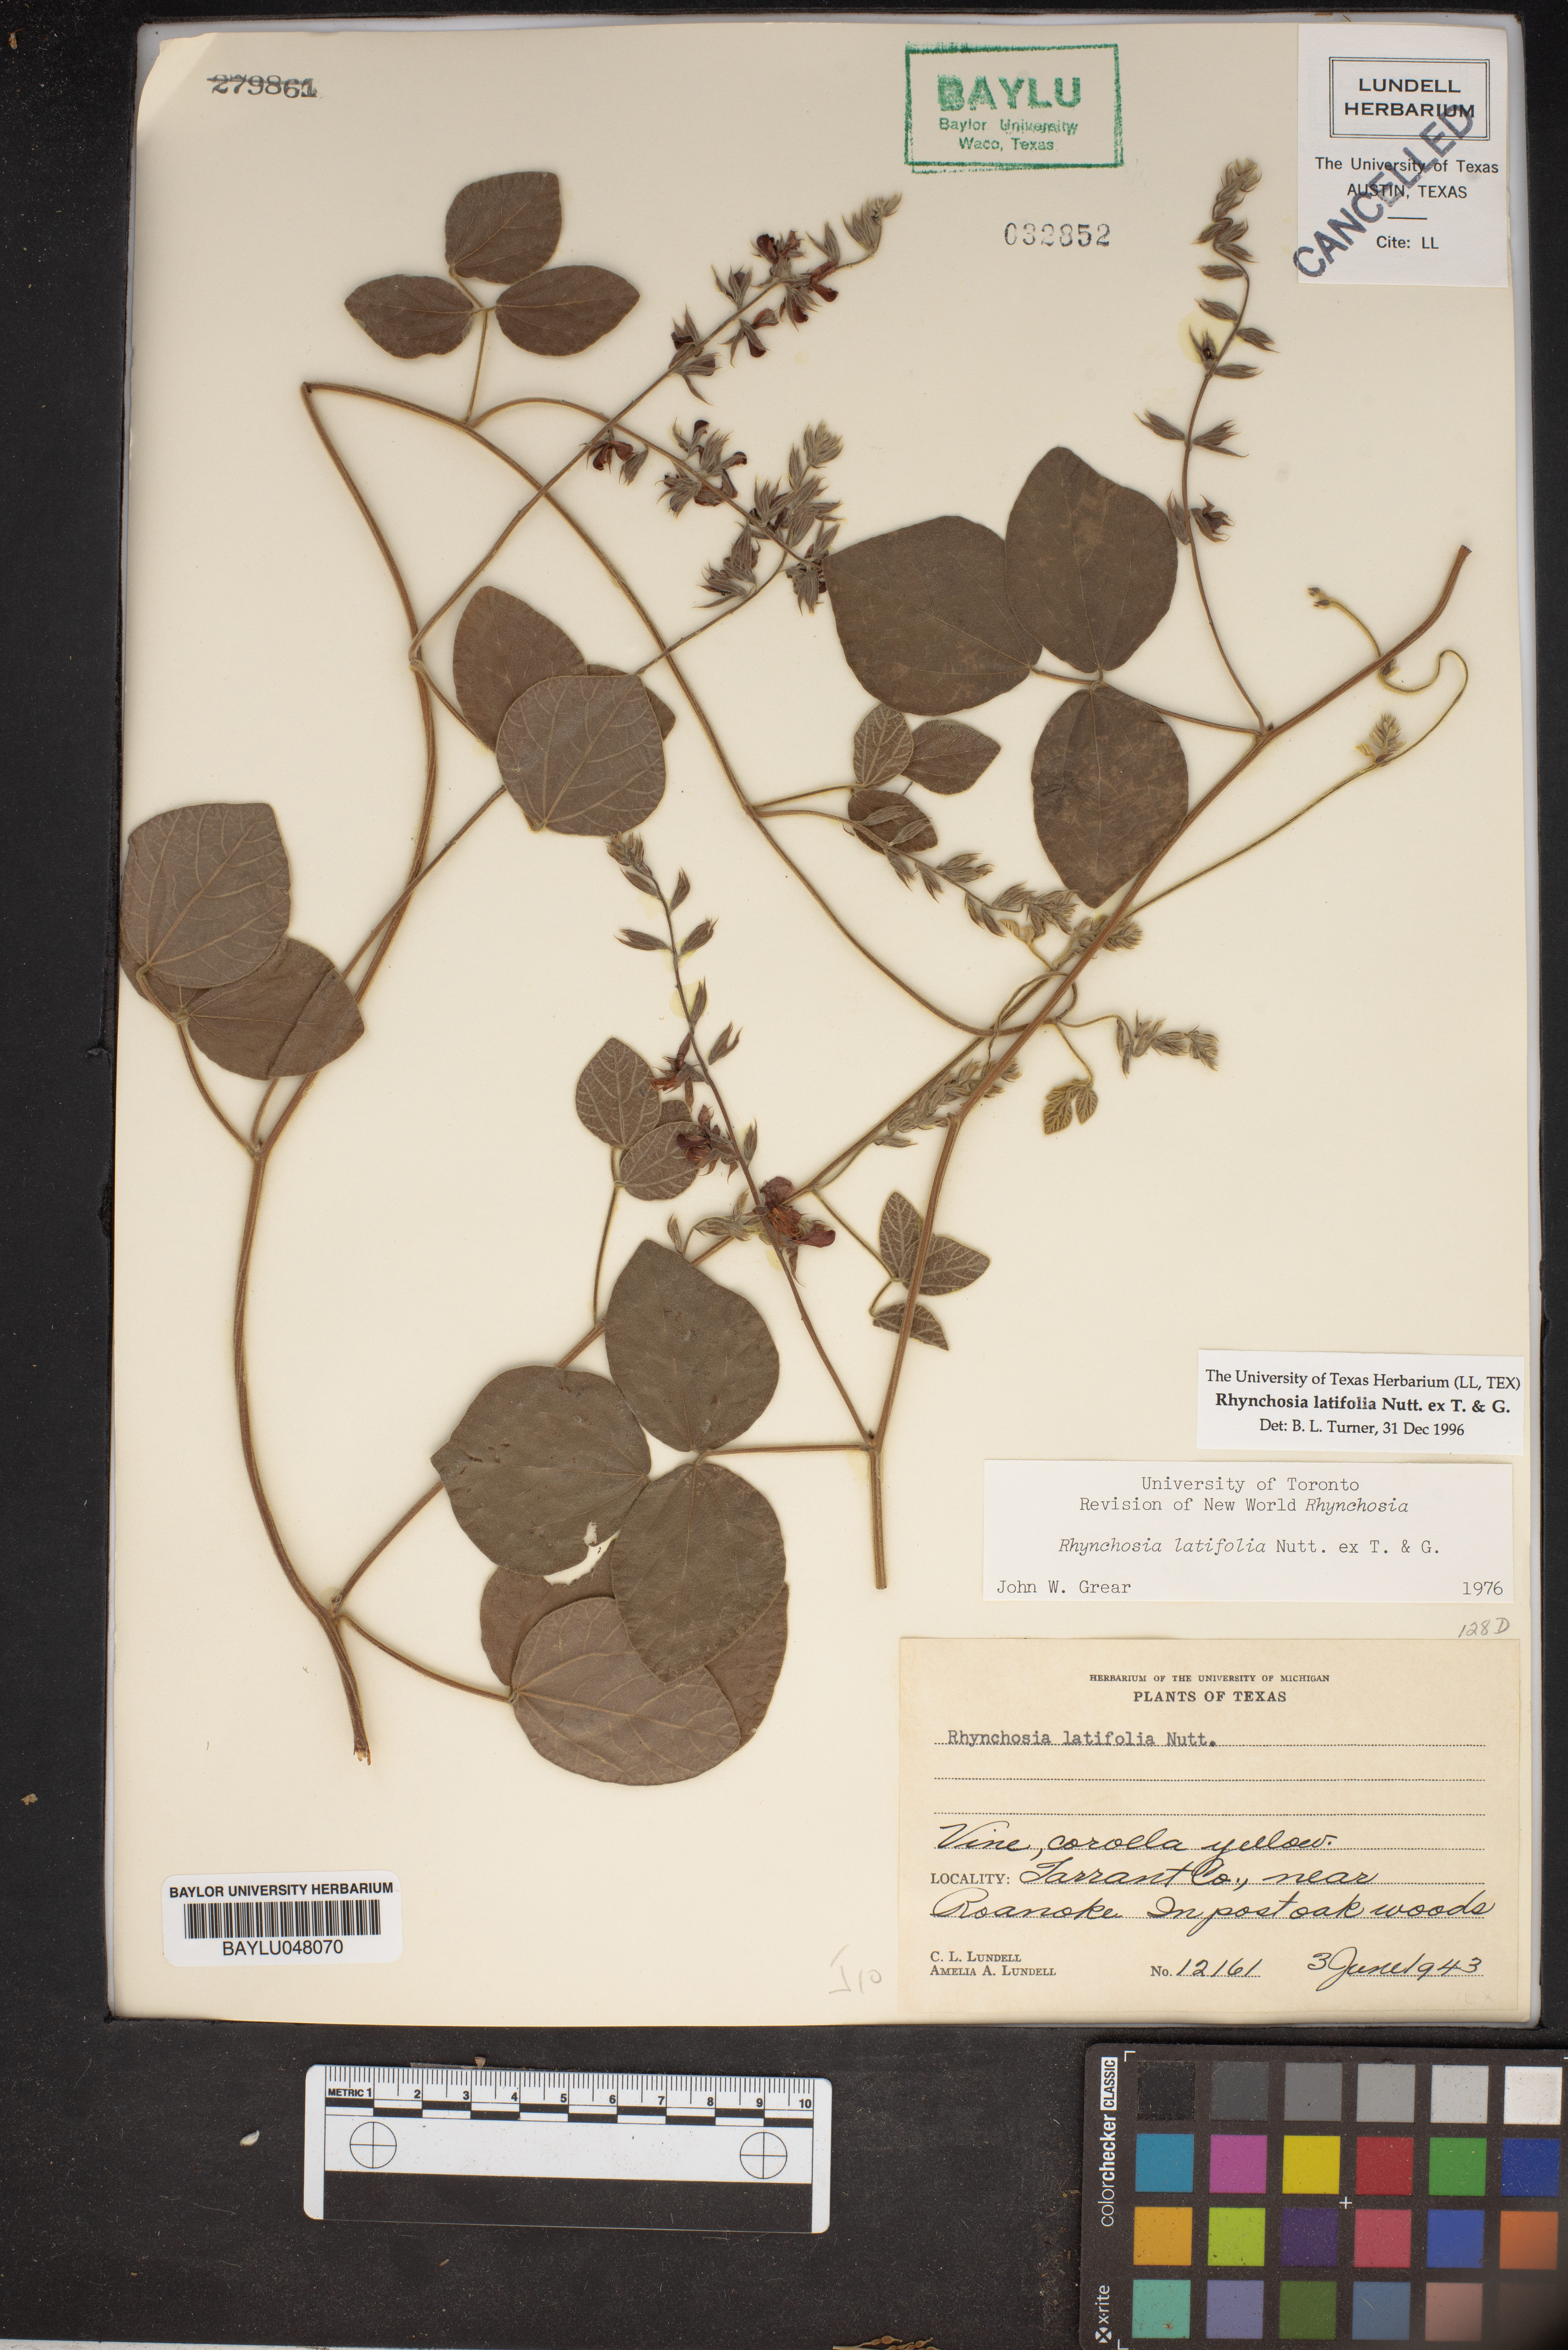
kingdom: Plantae
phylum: Tracheophyta
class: Magnoliopsida
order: Fabales
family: Fabaceae
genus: Rhynchosia
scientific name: Rhynchosia latifolia
